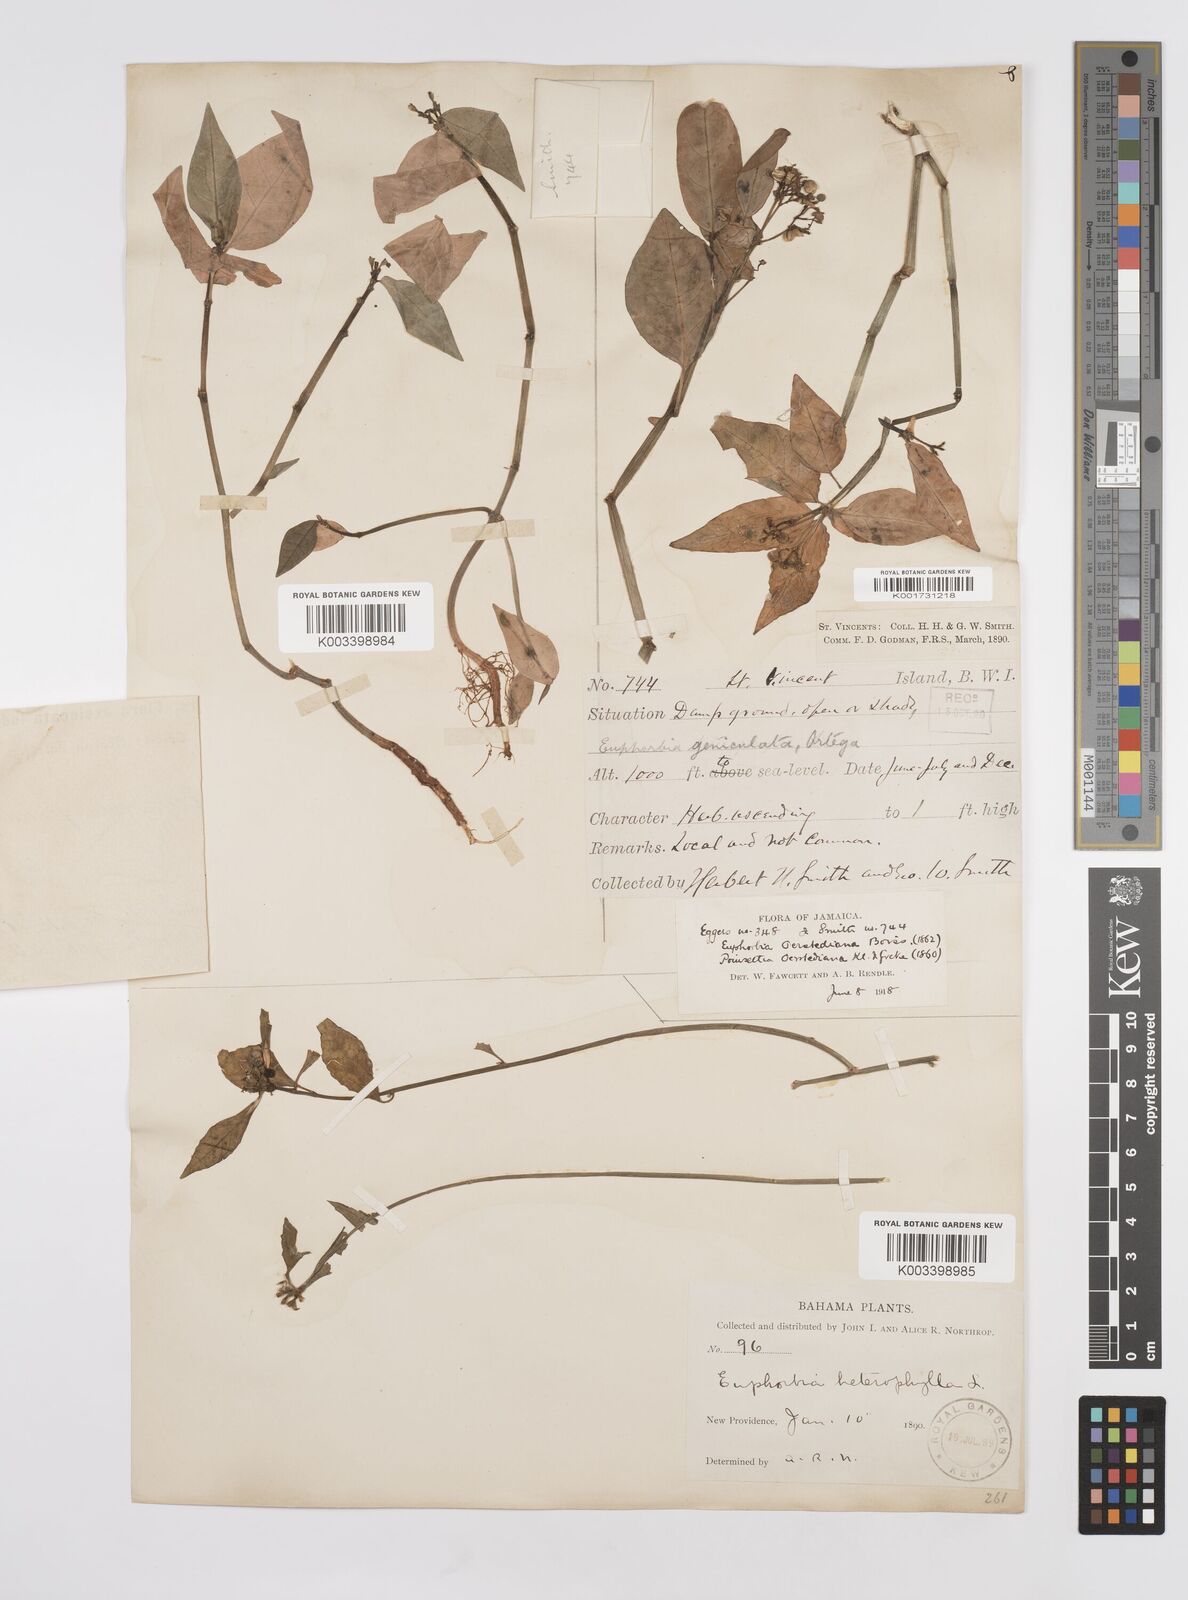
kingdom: Plantae
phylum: Tracheophyta
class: Magnoliopsida
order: Malpighiales
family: Euphorbiaceae
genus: Euphorbia
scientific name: Euphorbia heterophylla
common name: Mexican fireplant
